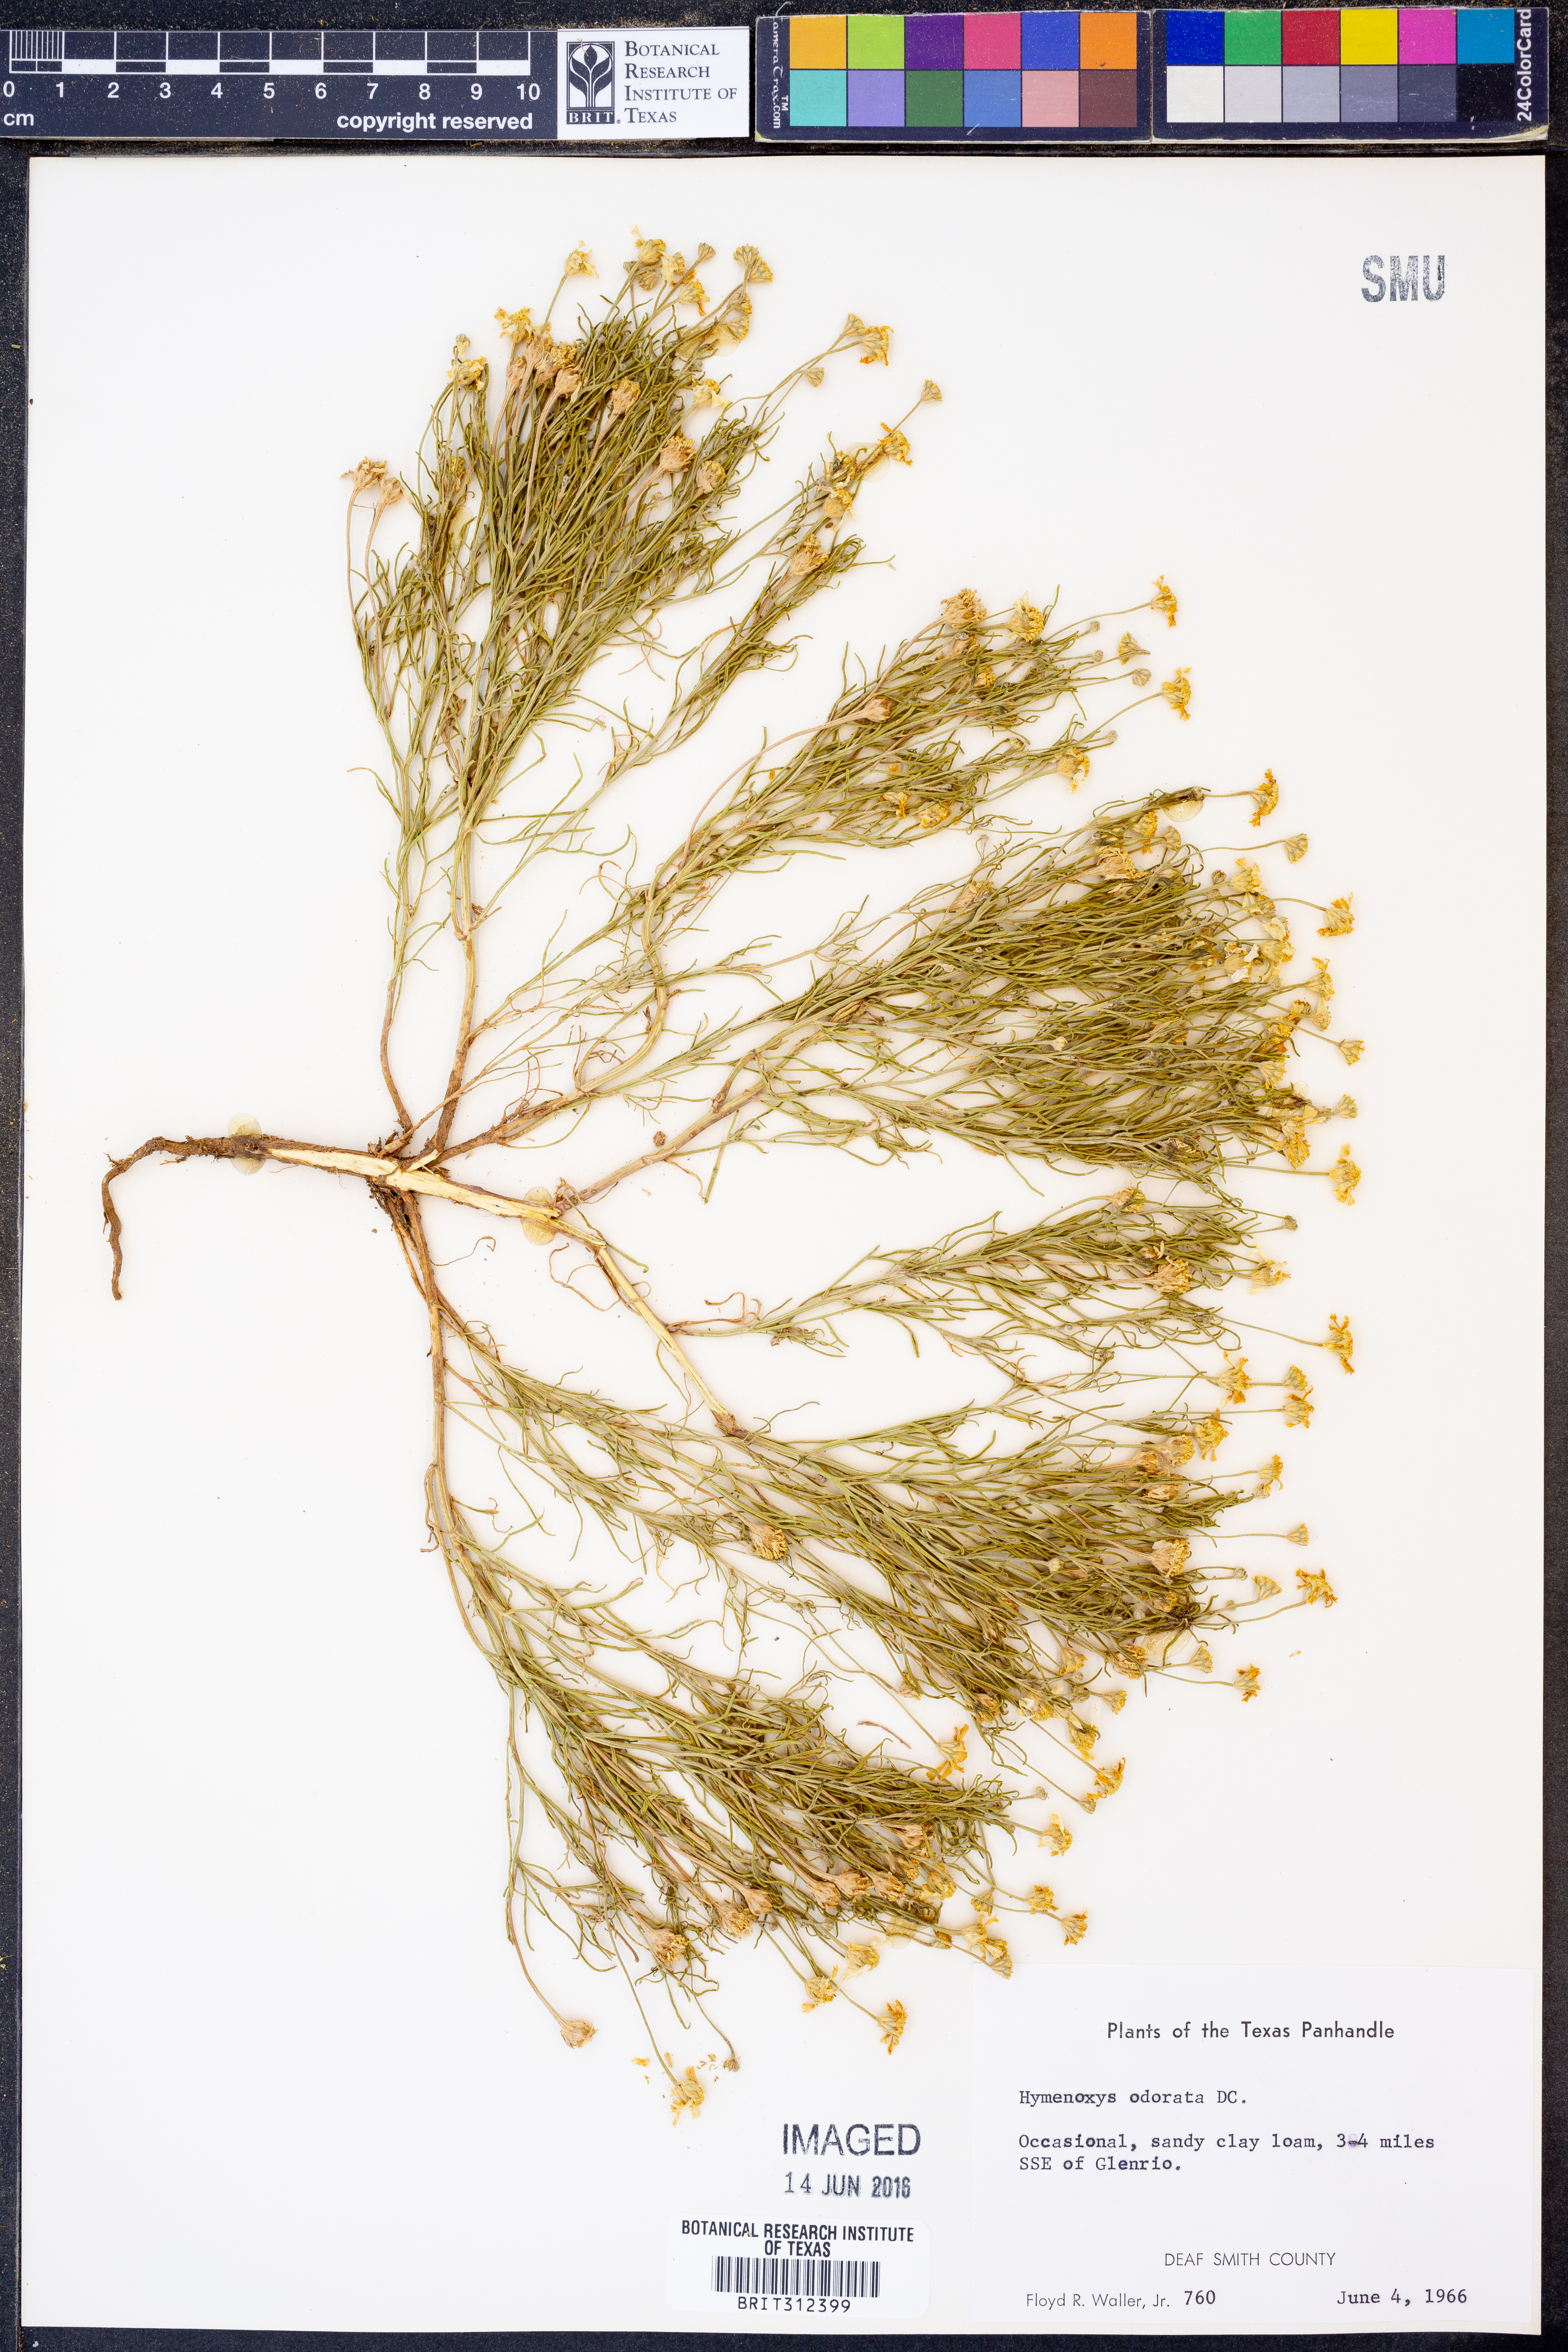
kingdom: Plantae
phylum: Tracheophyta
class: Magnoliopsida
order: Asterales
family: Asteraceae
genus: Hymenoxys
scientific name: Hymenoxys odorata
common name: Bitter rubberweed
